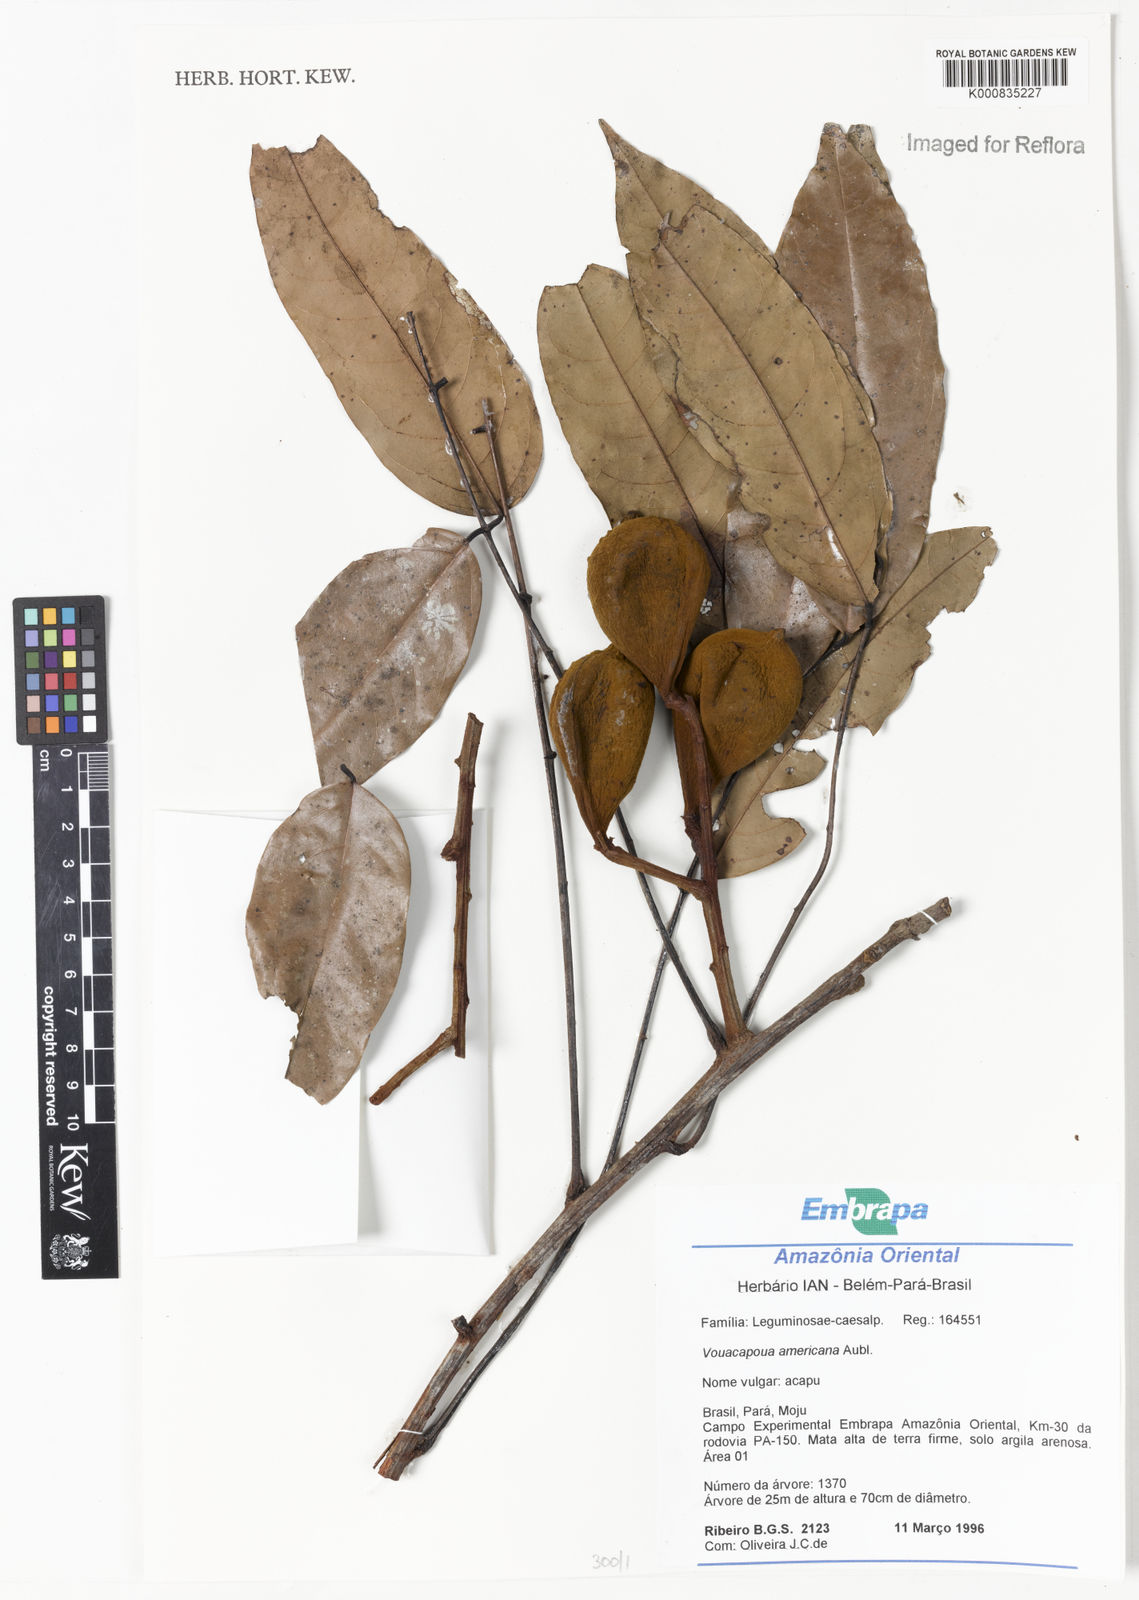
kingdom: Plantae
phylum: Tracheophyta
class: Magnoliopsida
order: Fabales
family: Fabaceae
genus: Vouacapoua
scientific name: Vouacapoua americana
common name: Partridgewood
